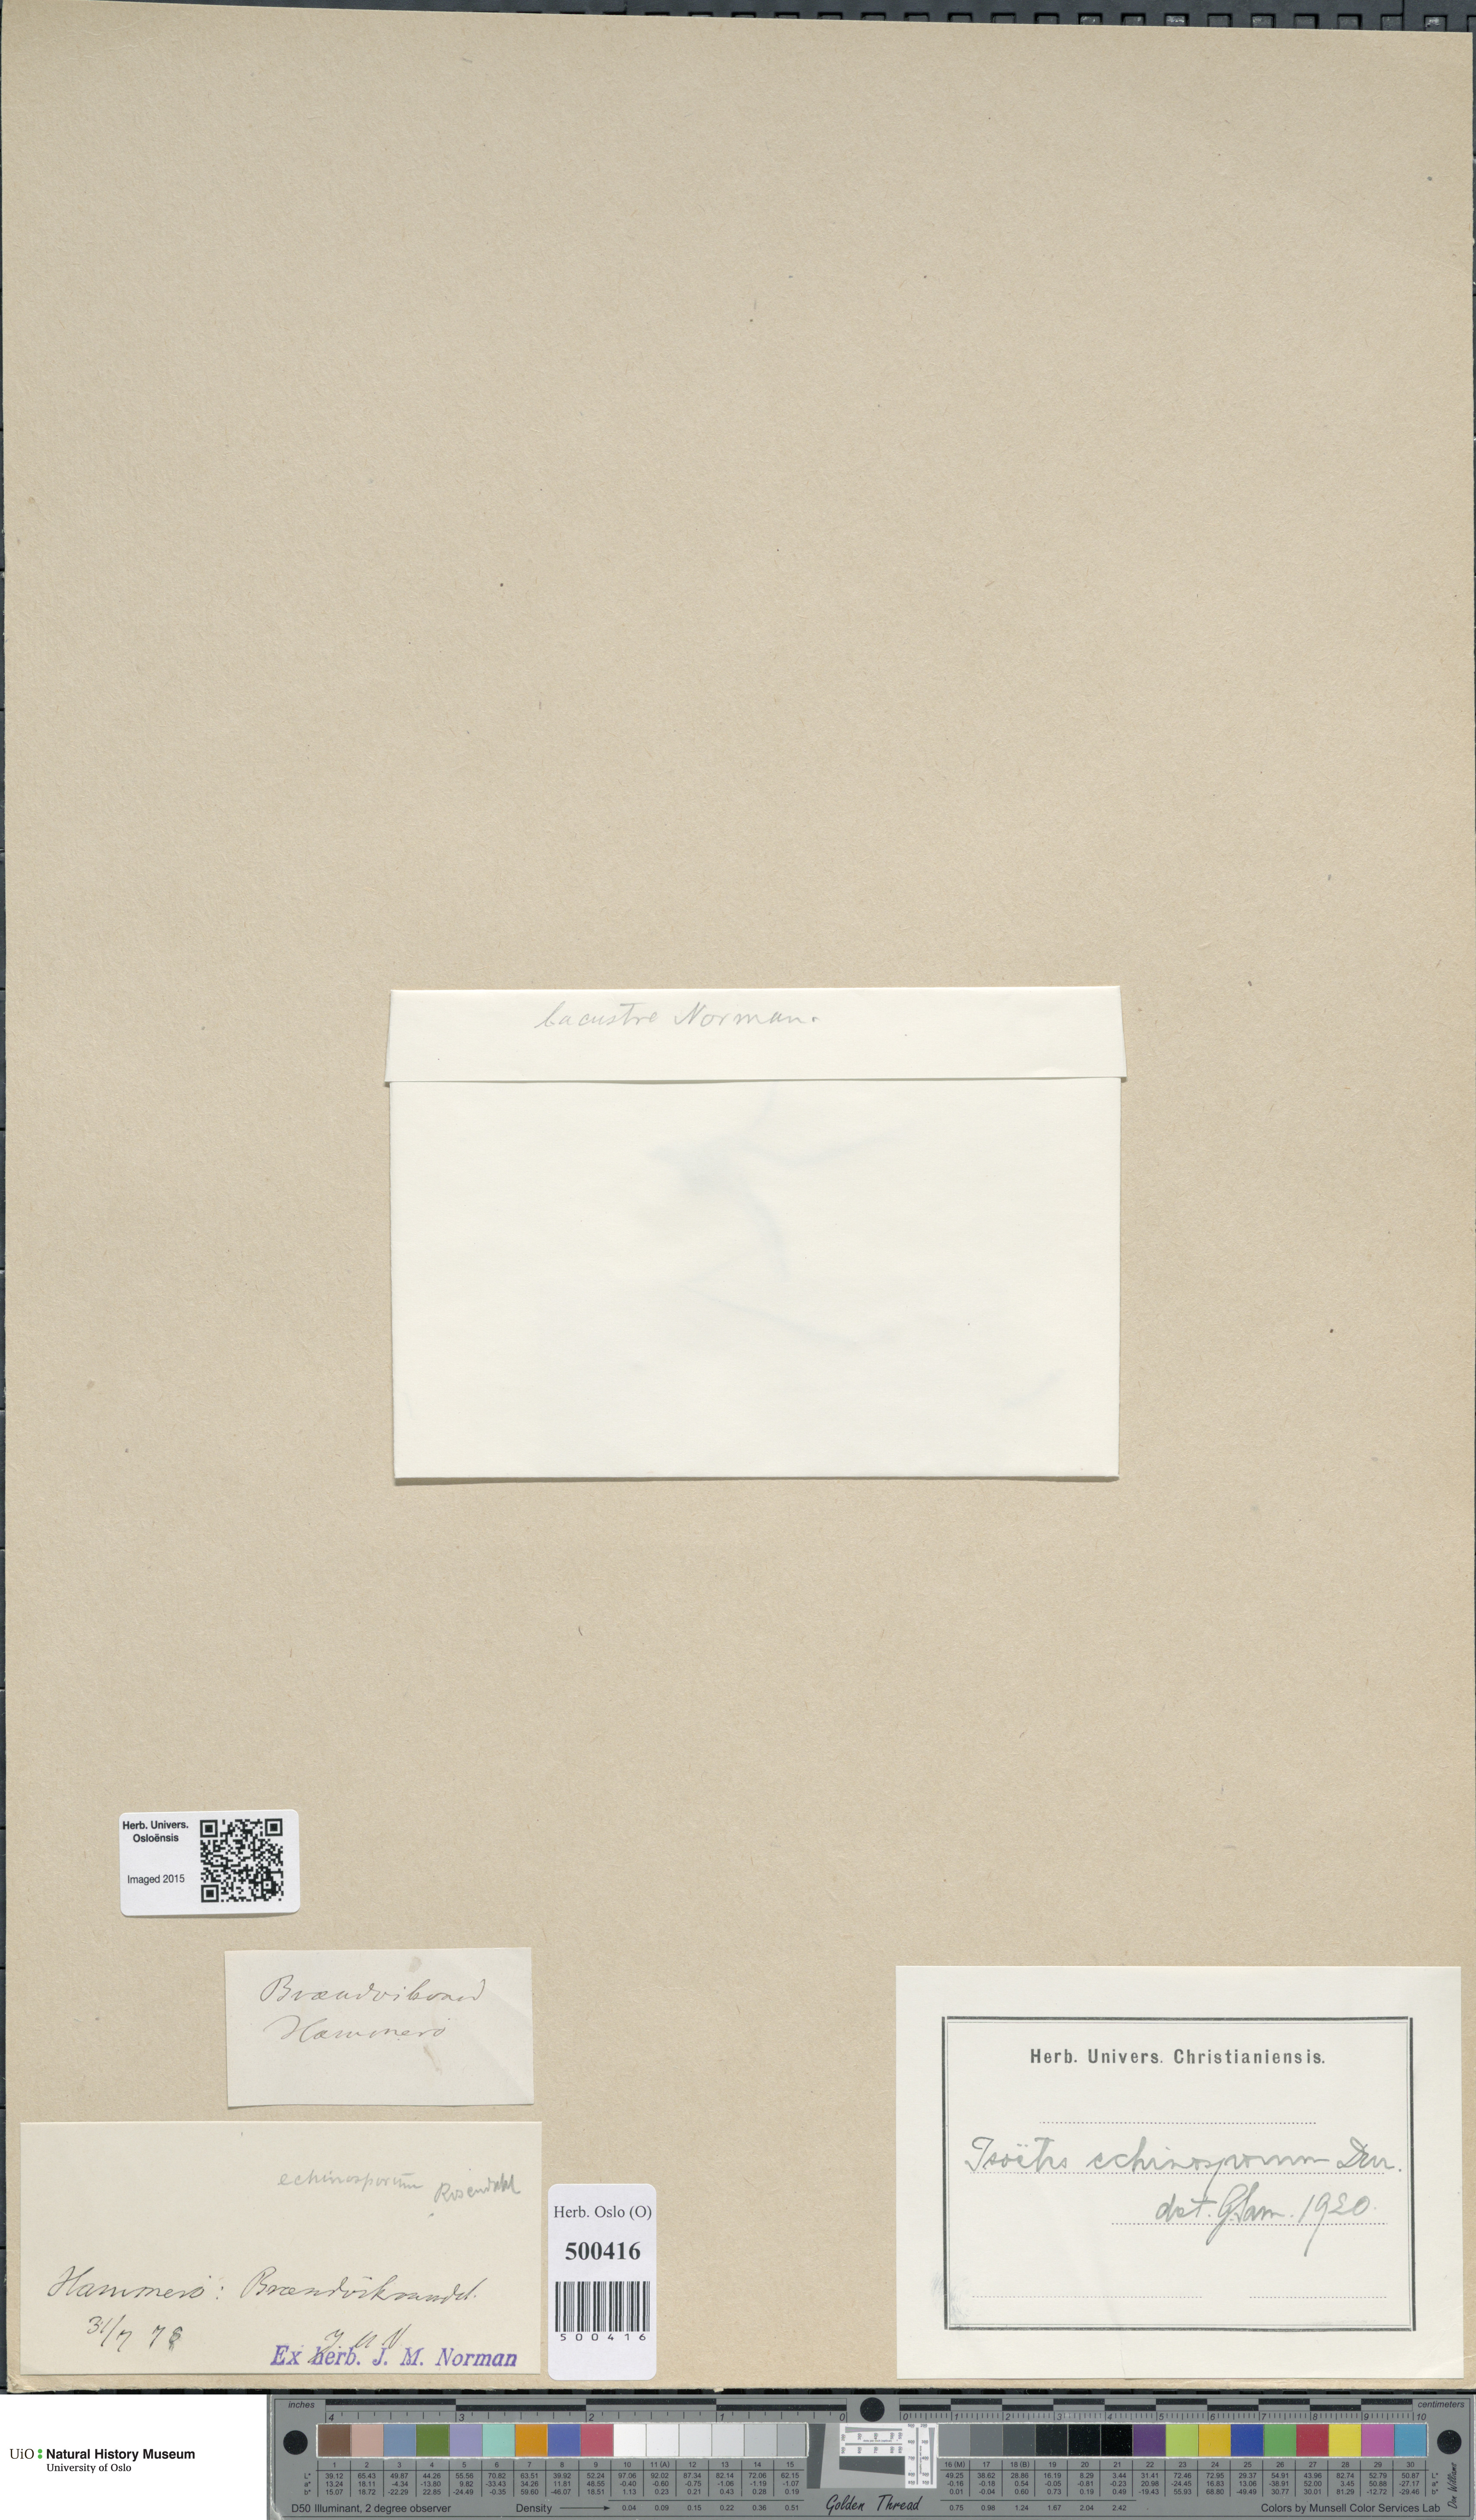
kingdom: Plantae
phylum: Tracheophyta
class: Lycopodiopsida
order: Isoetales
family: Isoetaceae
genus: Isoetes
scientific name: Isoetes echinospora
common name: Spring quillwort
